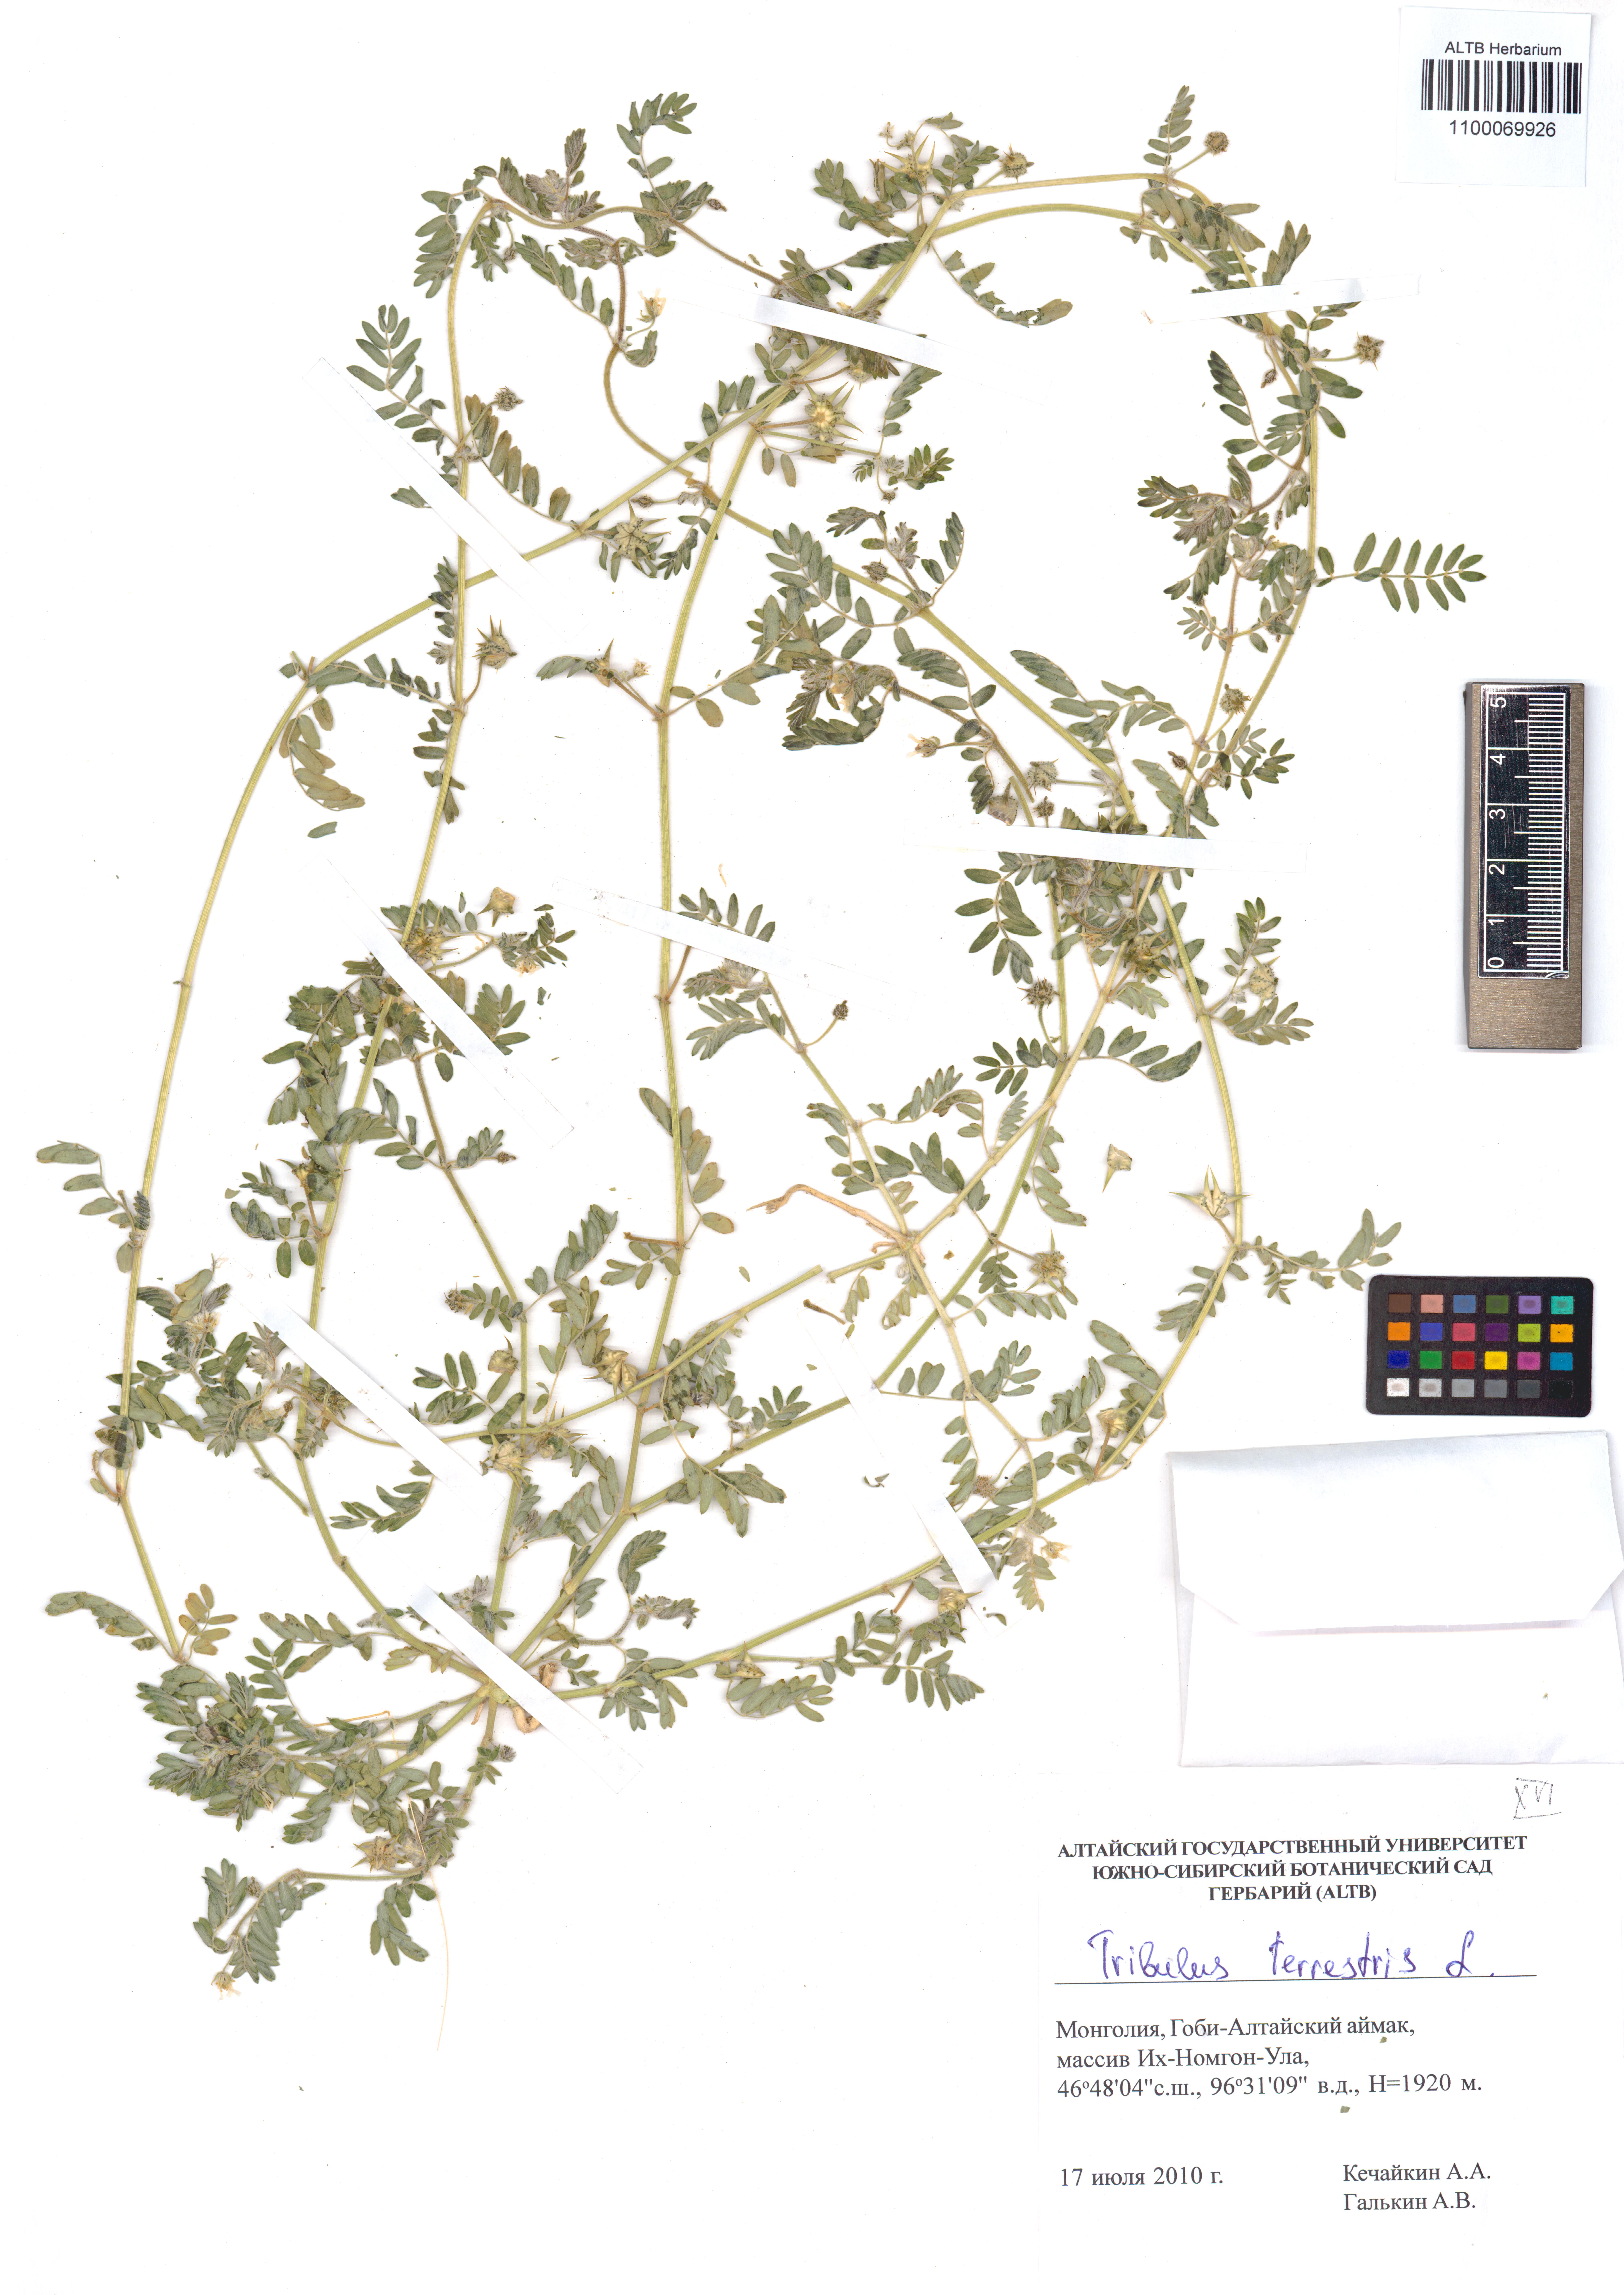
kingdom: Plantae
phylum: Tracheophyta
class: Magnoliopsida
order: Zygophyllales
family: Zygophyllaceae
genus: Tribulus
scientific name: Tribulus terrestris
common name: Puncturevine
